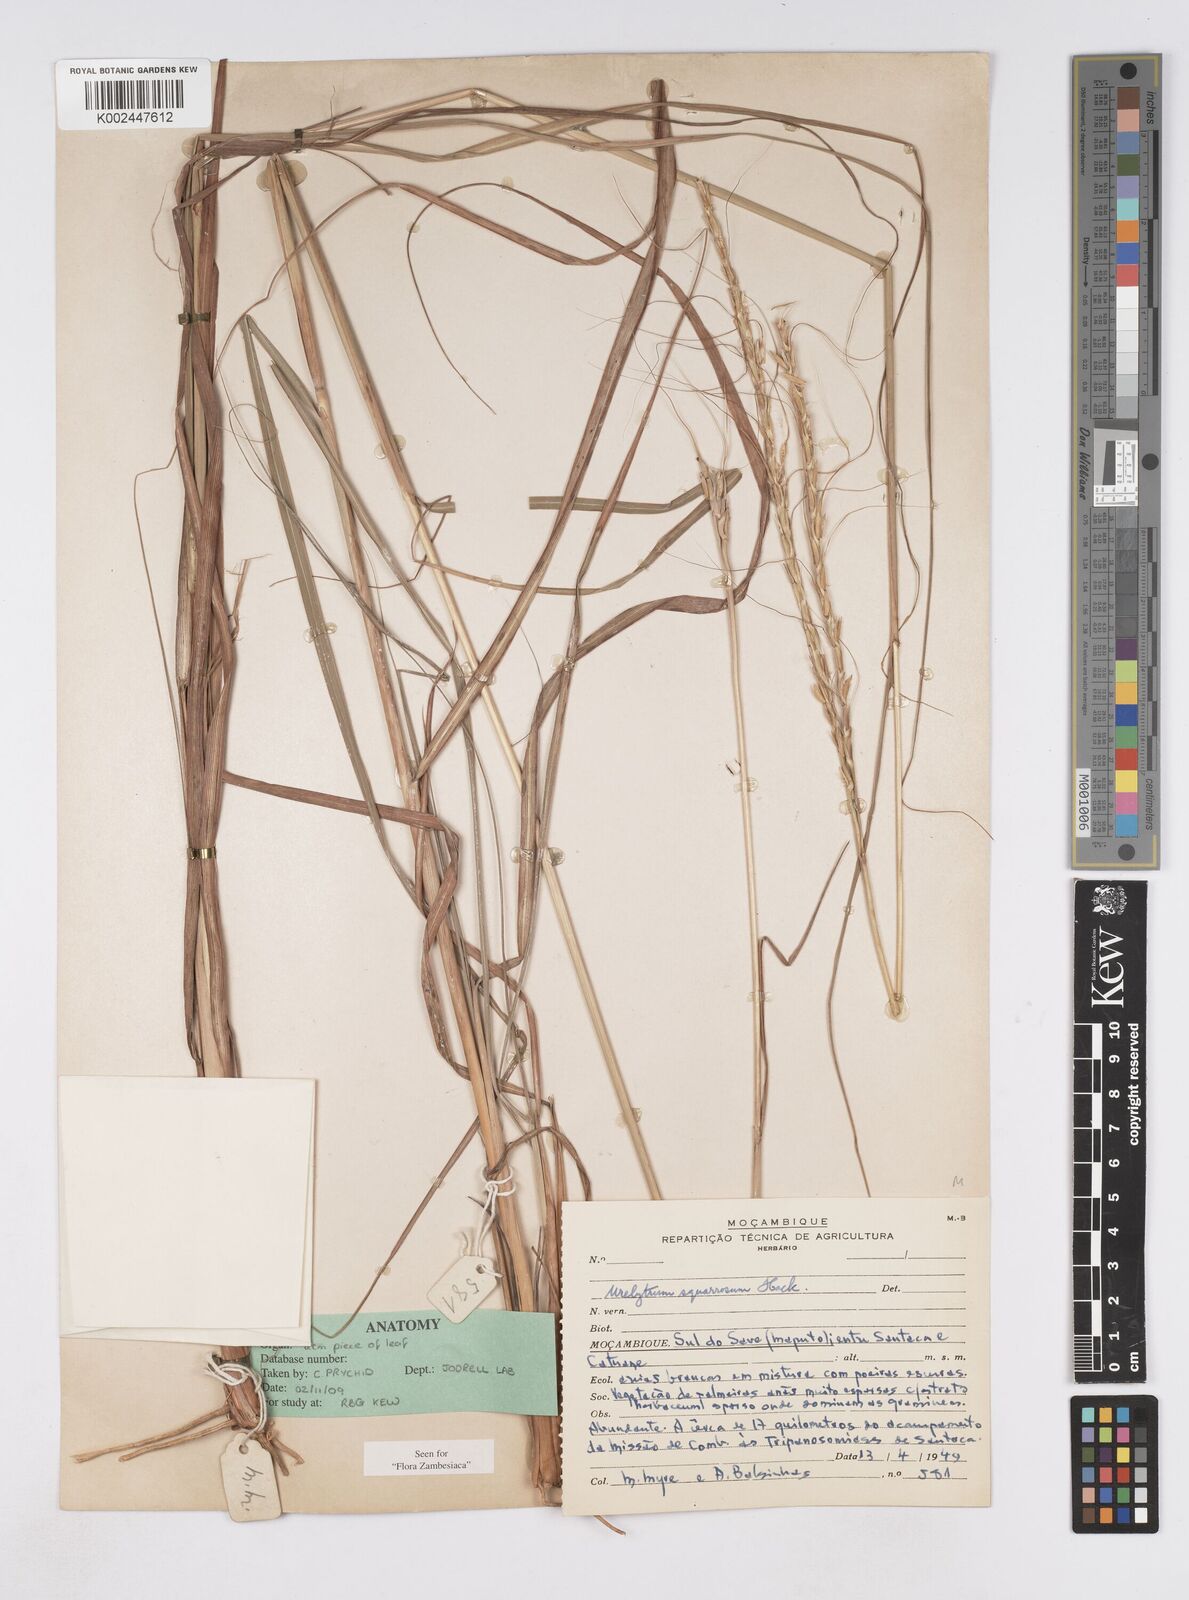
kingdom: Plantae
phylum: Tracheophyta
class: Liliopsida
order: Poales
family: Poaceae
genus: Urelytrum
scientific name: Urelytrum agropyroides
